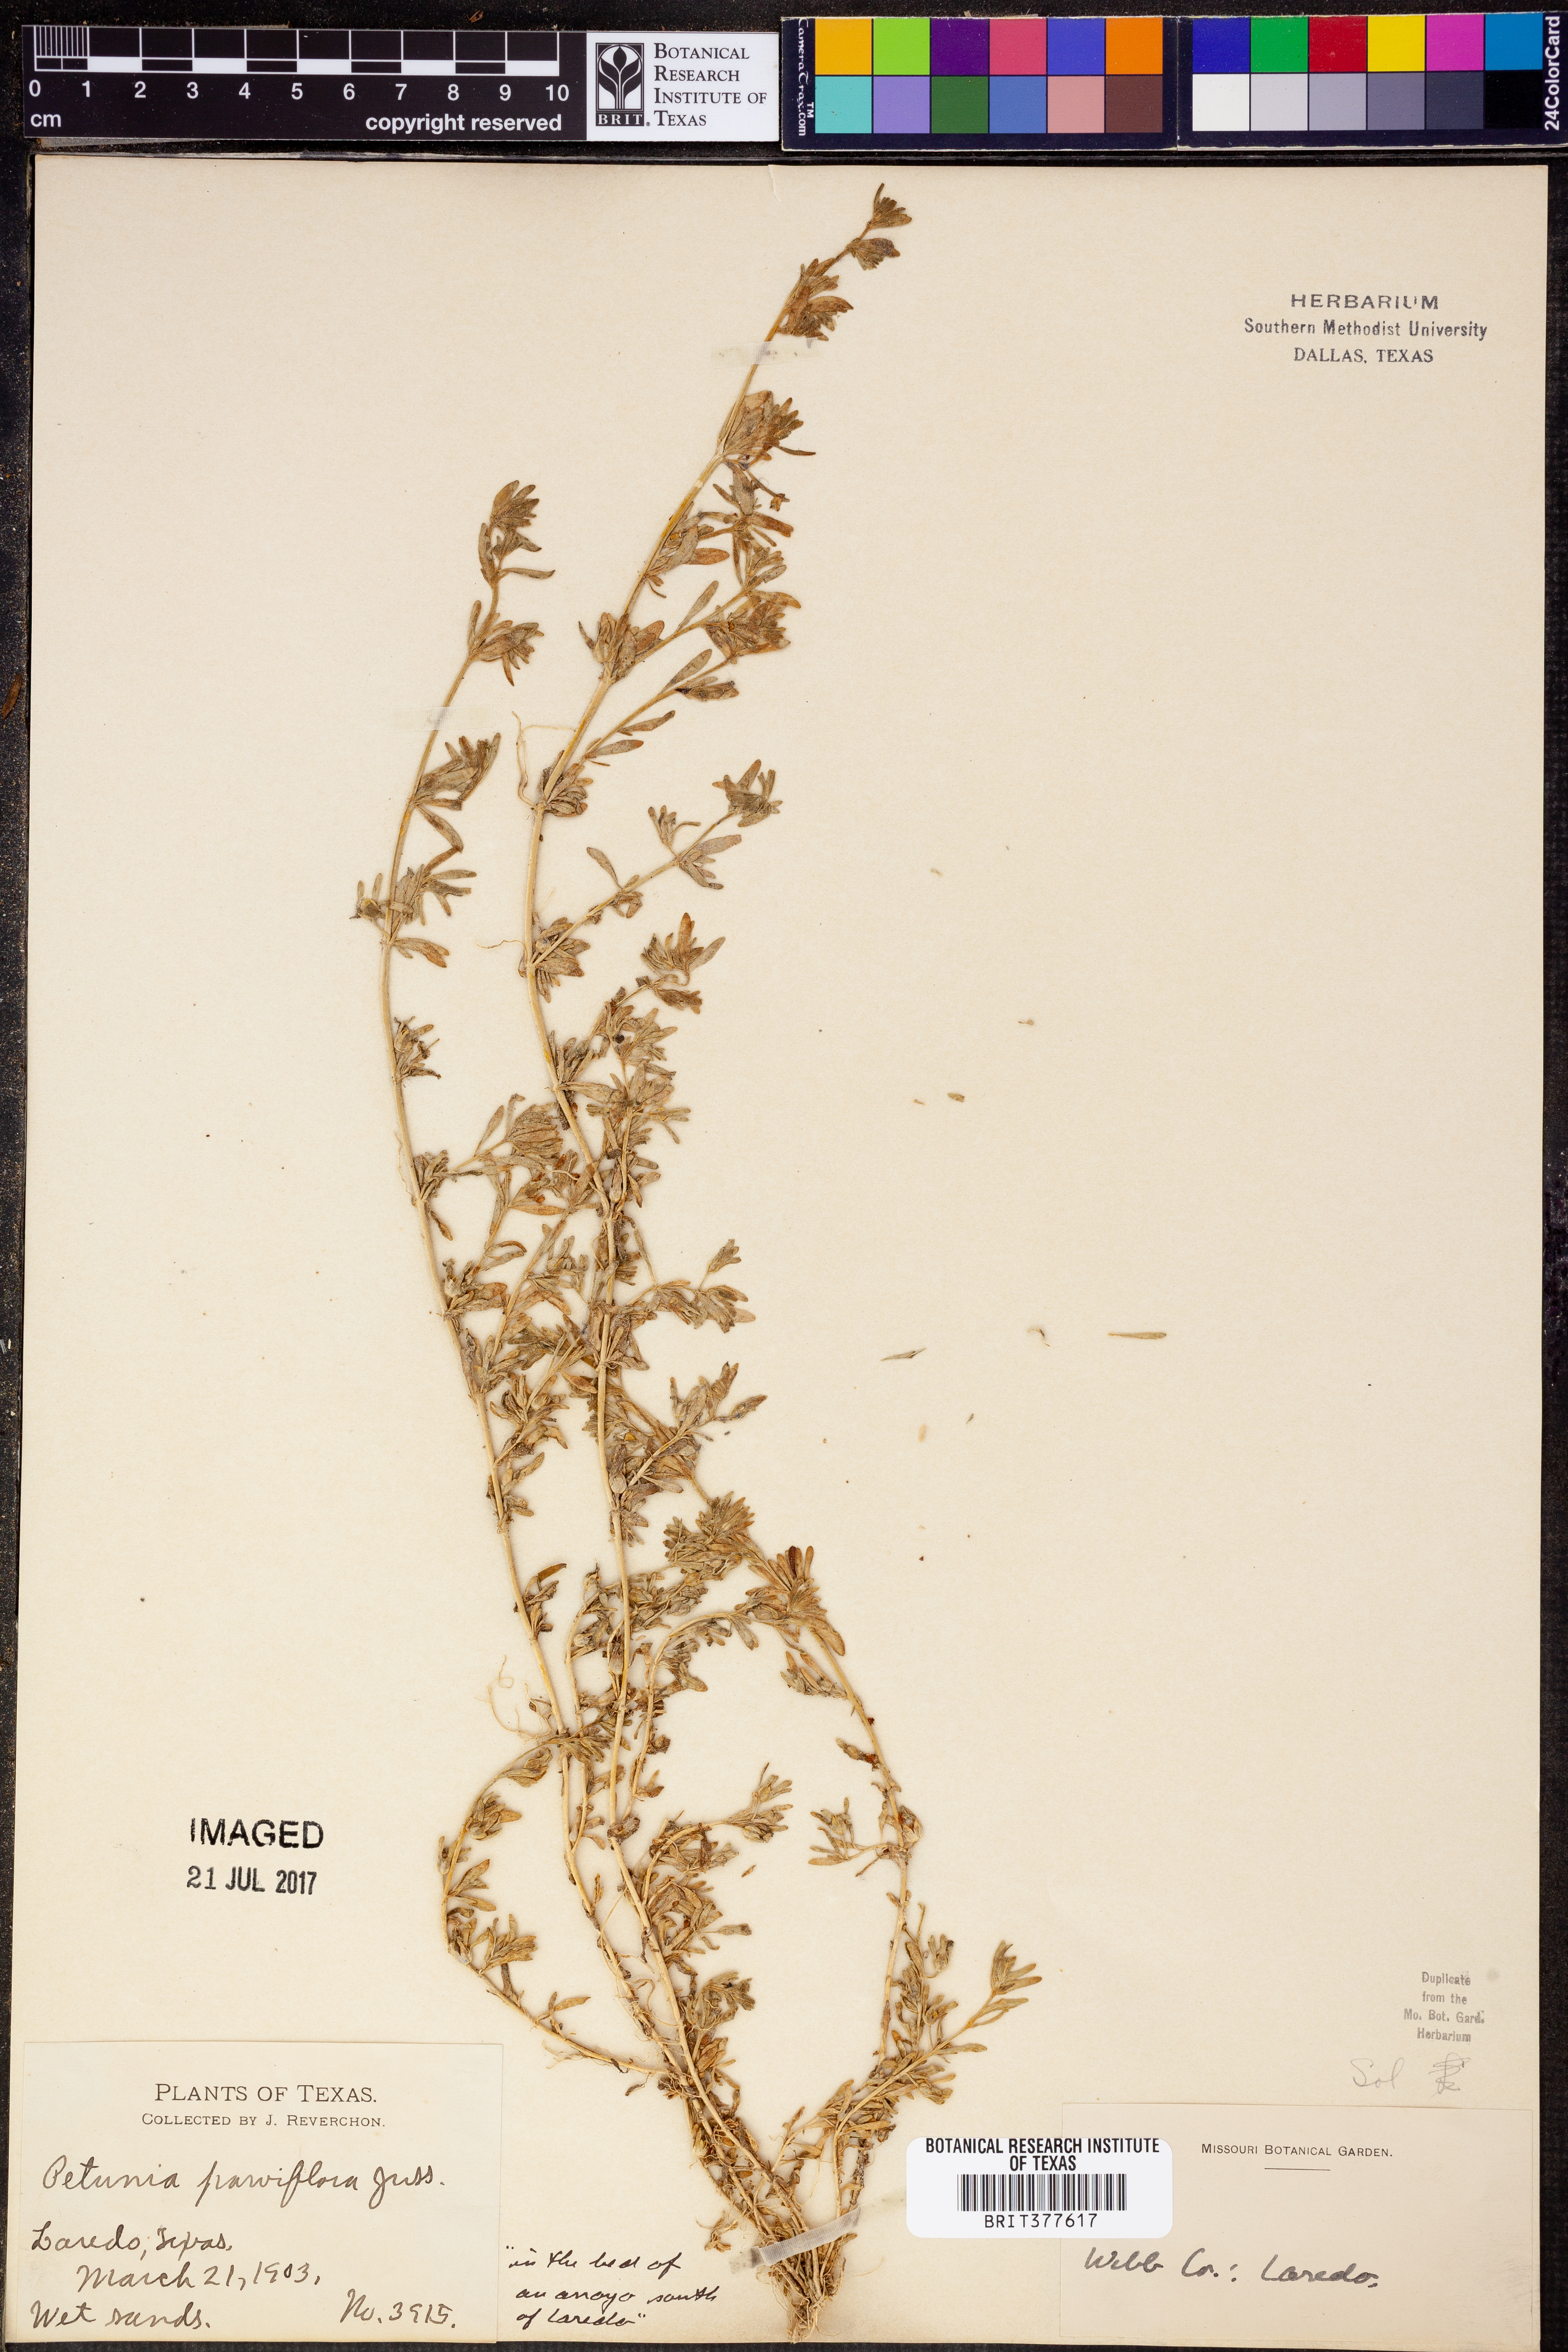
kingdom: Plantae
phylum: Tracheophyta
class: Magnoliopsida
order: Solanales
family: Solanaceae
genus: Calibrachoa
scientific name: Calibrachoa parviflora
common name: Seaside petunia
